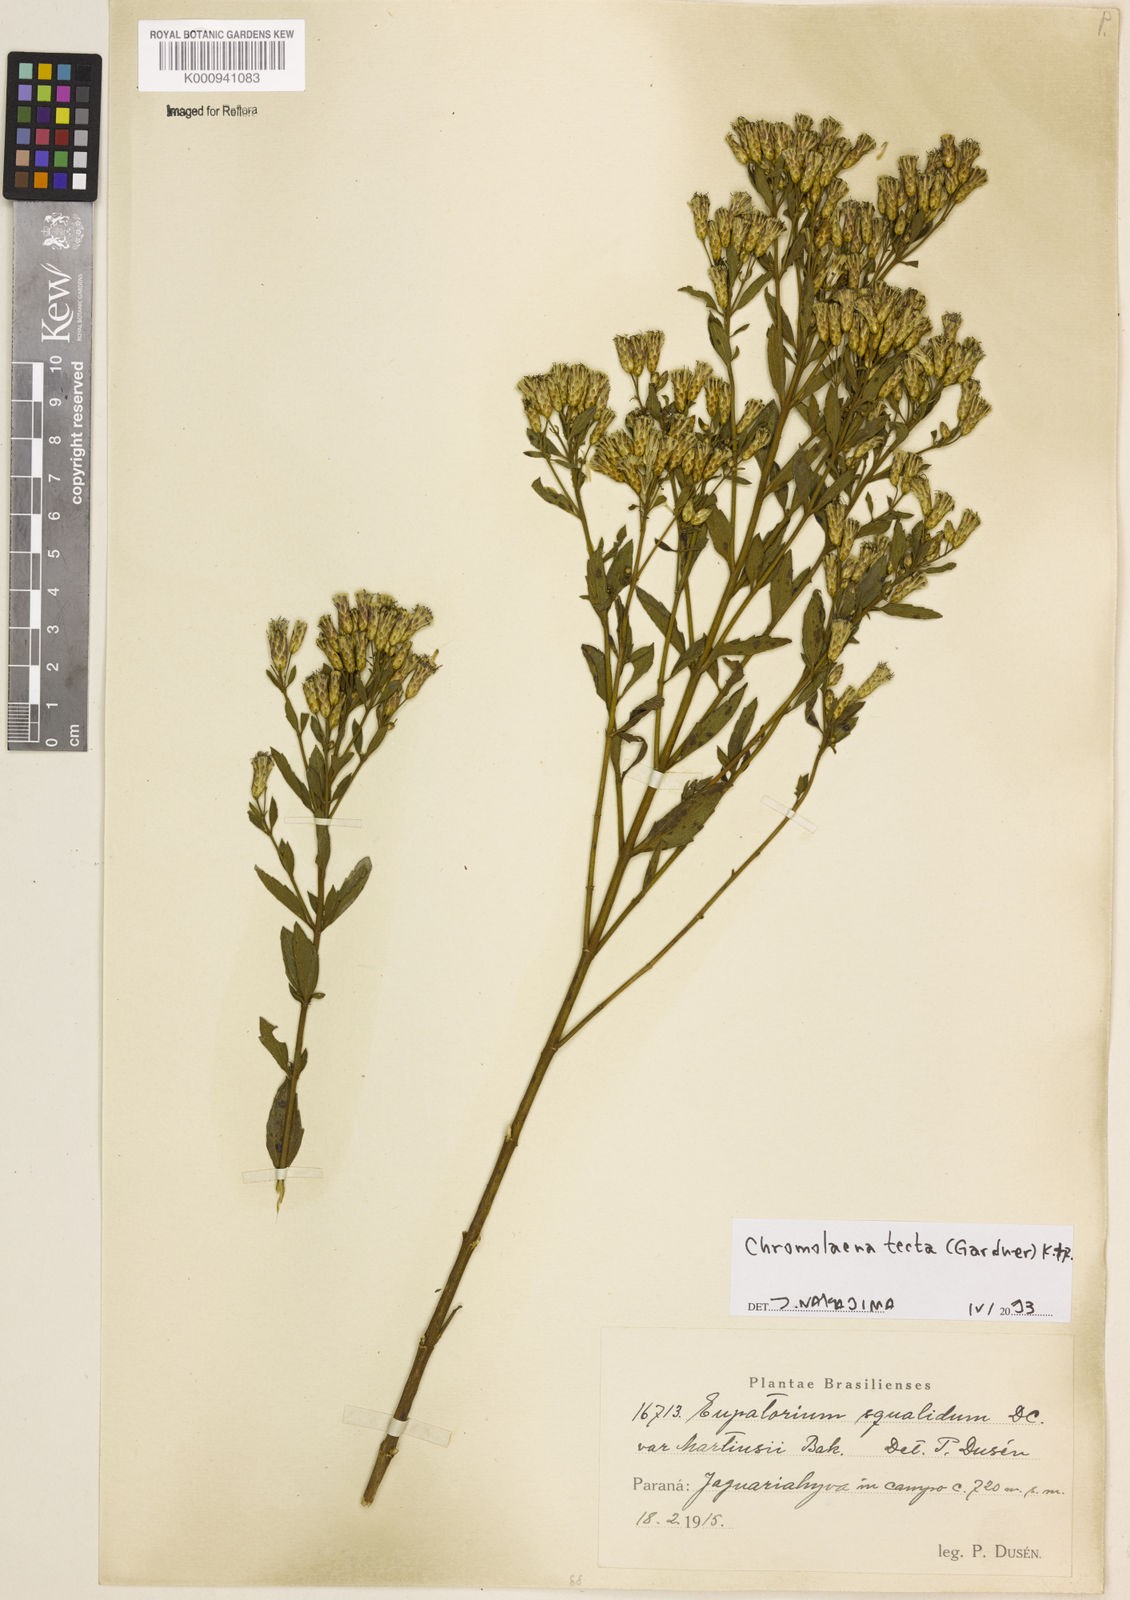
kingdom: Plantae
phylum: Tracheophyta
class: Magnoliopsida
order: Asterales
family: Asteraceae
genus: Chromolaena
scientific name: Chromolaena tecta
